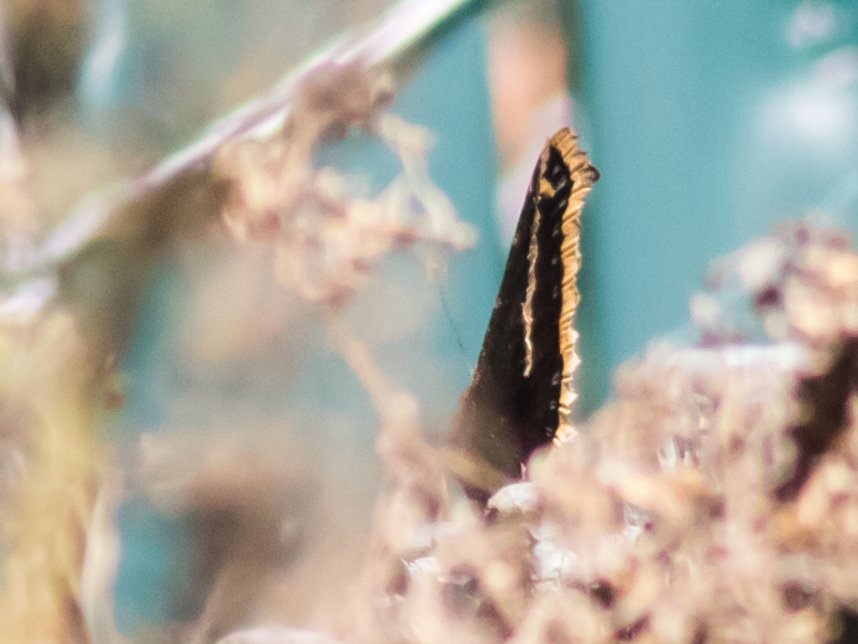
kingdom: Animalia
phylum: Arthropoda
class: Insecta
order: Lepidoptera
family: Nymphalidae
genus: Nymphalis
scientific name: Nymphalis antiopa
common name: Mourning Cloak
